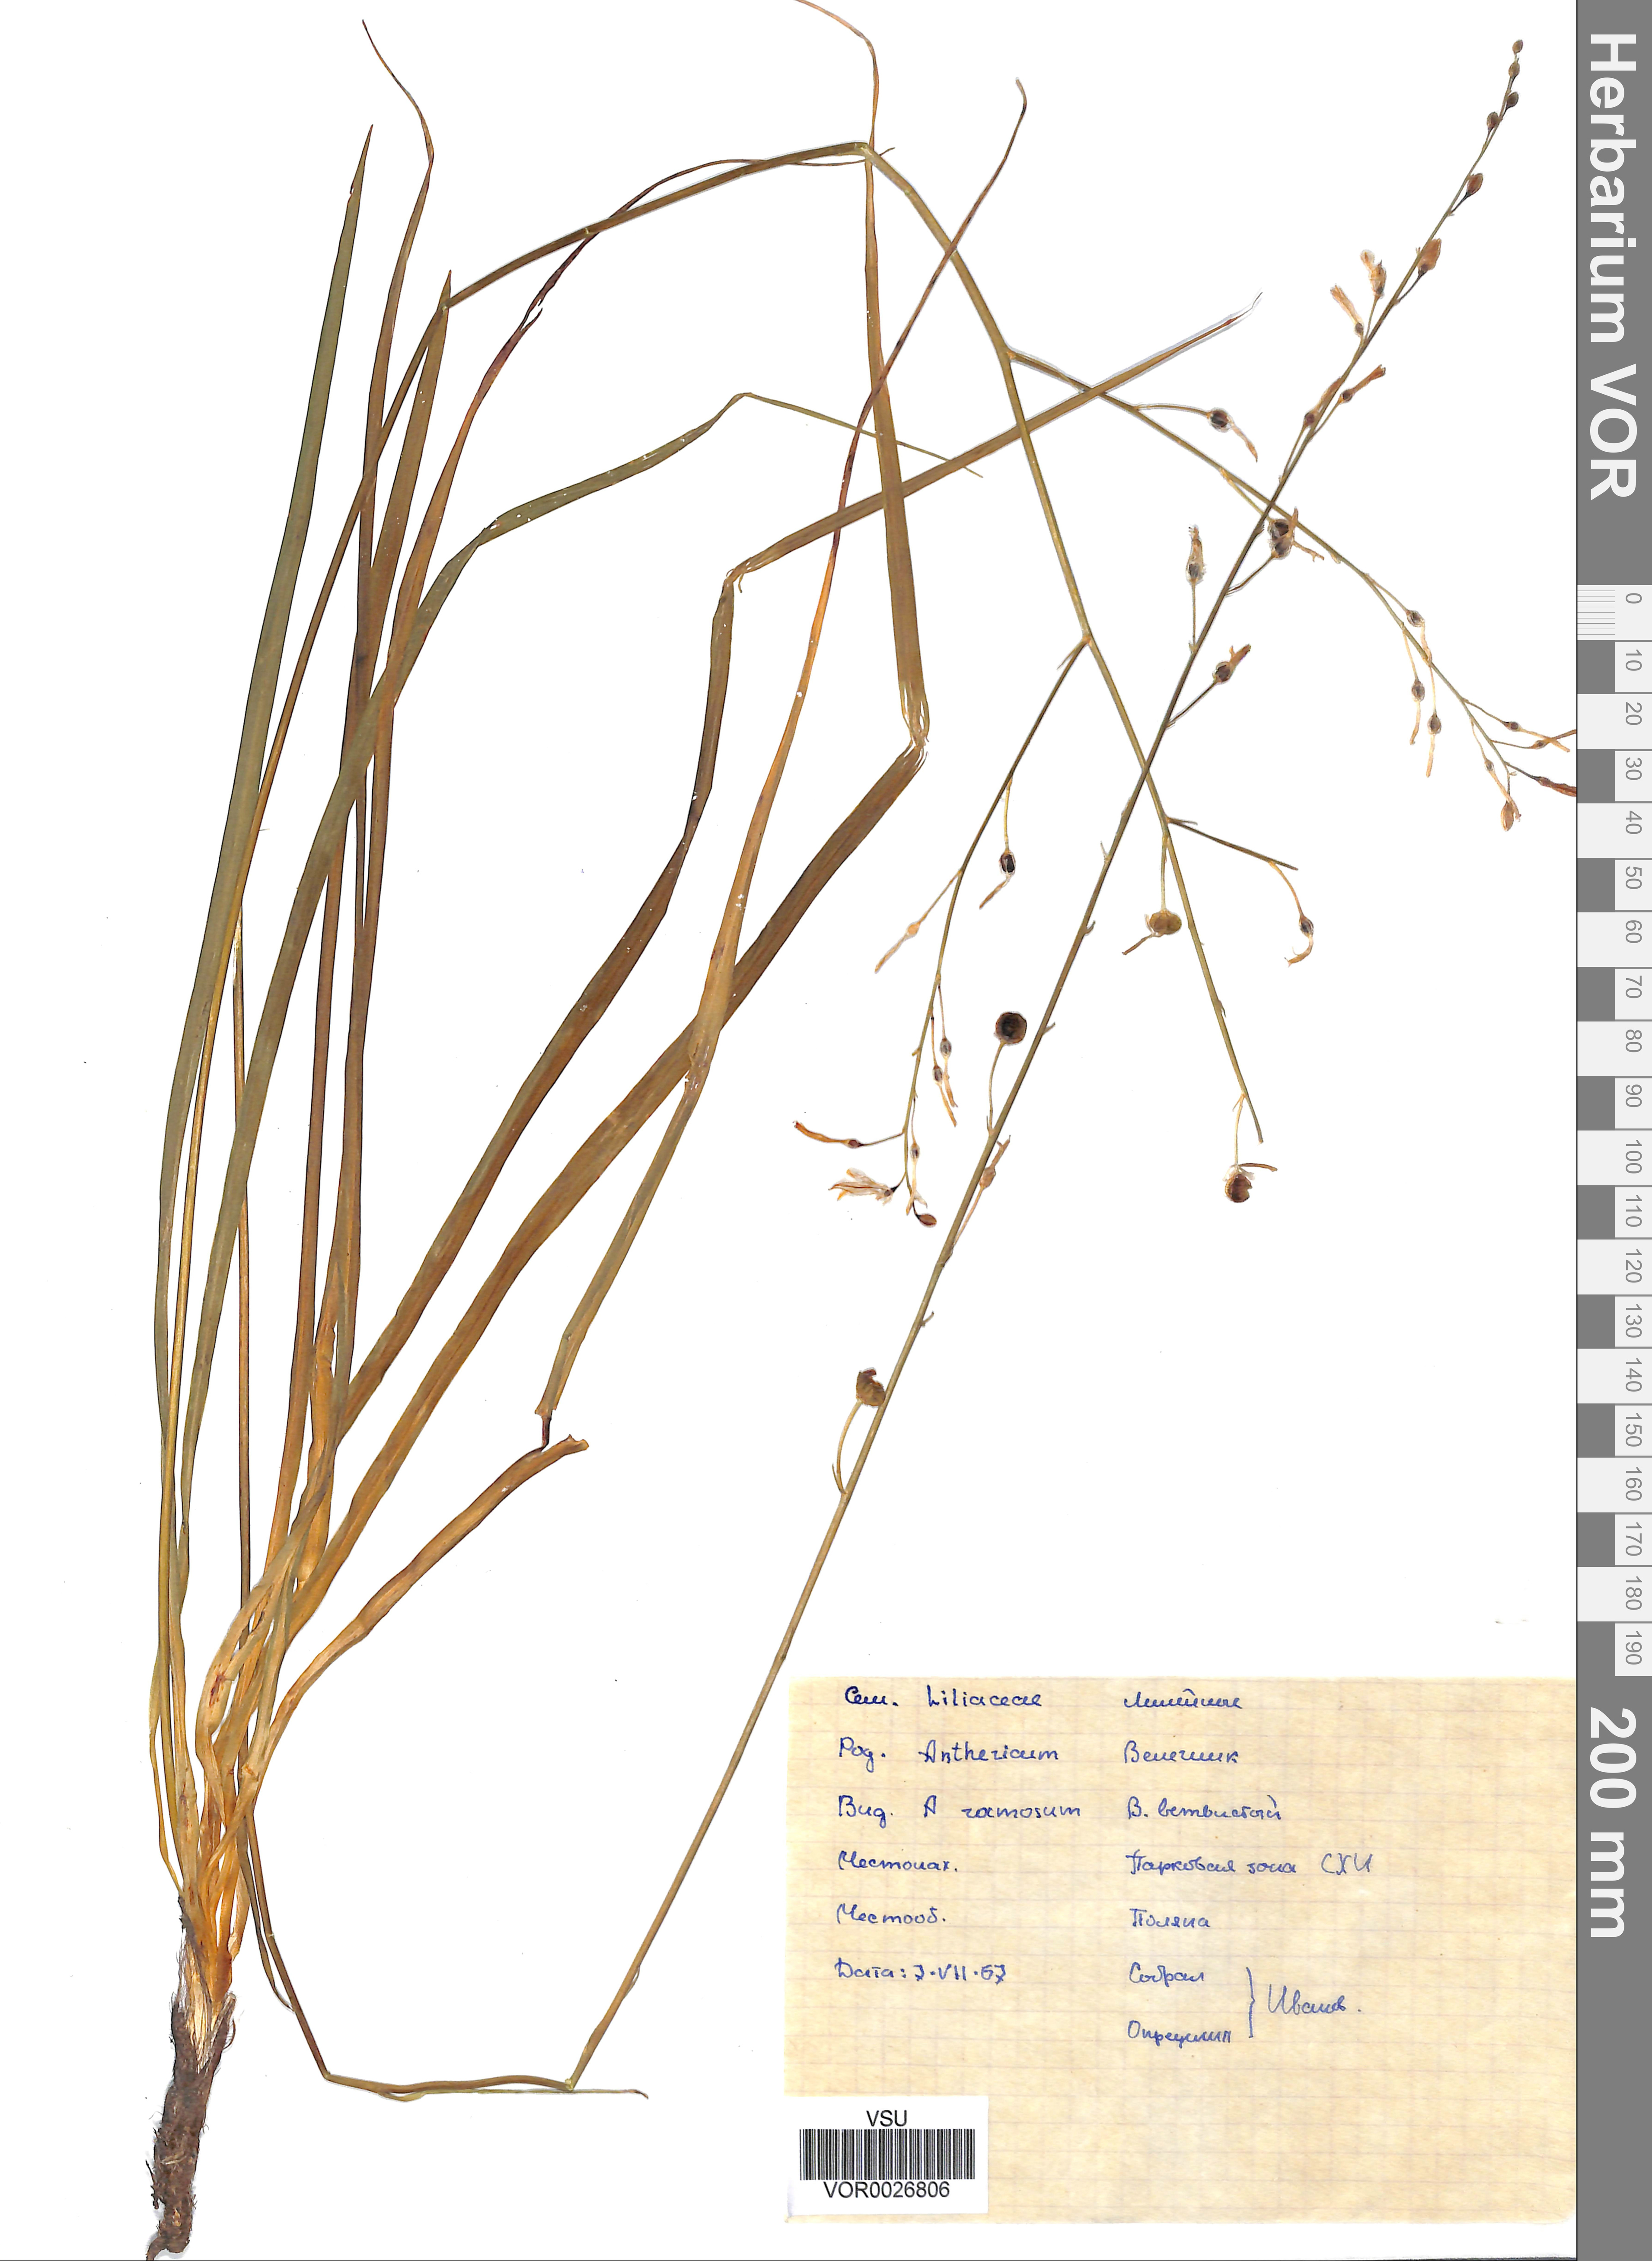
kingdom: Plantae
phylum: Tracheophyta
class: Liliopsida
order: Asparagales
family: Asparagaceae
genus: Anthericum
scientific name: Anthericum ramosum
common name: Branched st. bernard's-lily
